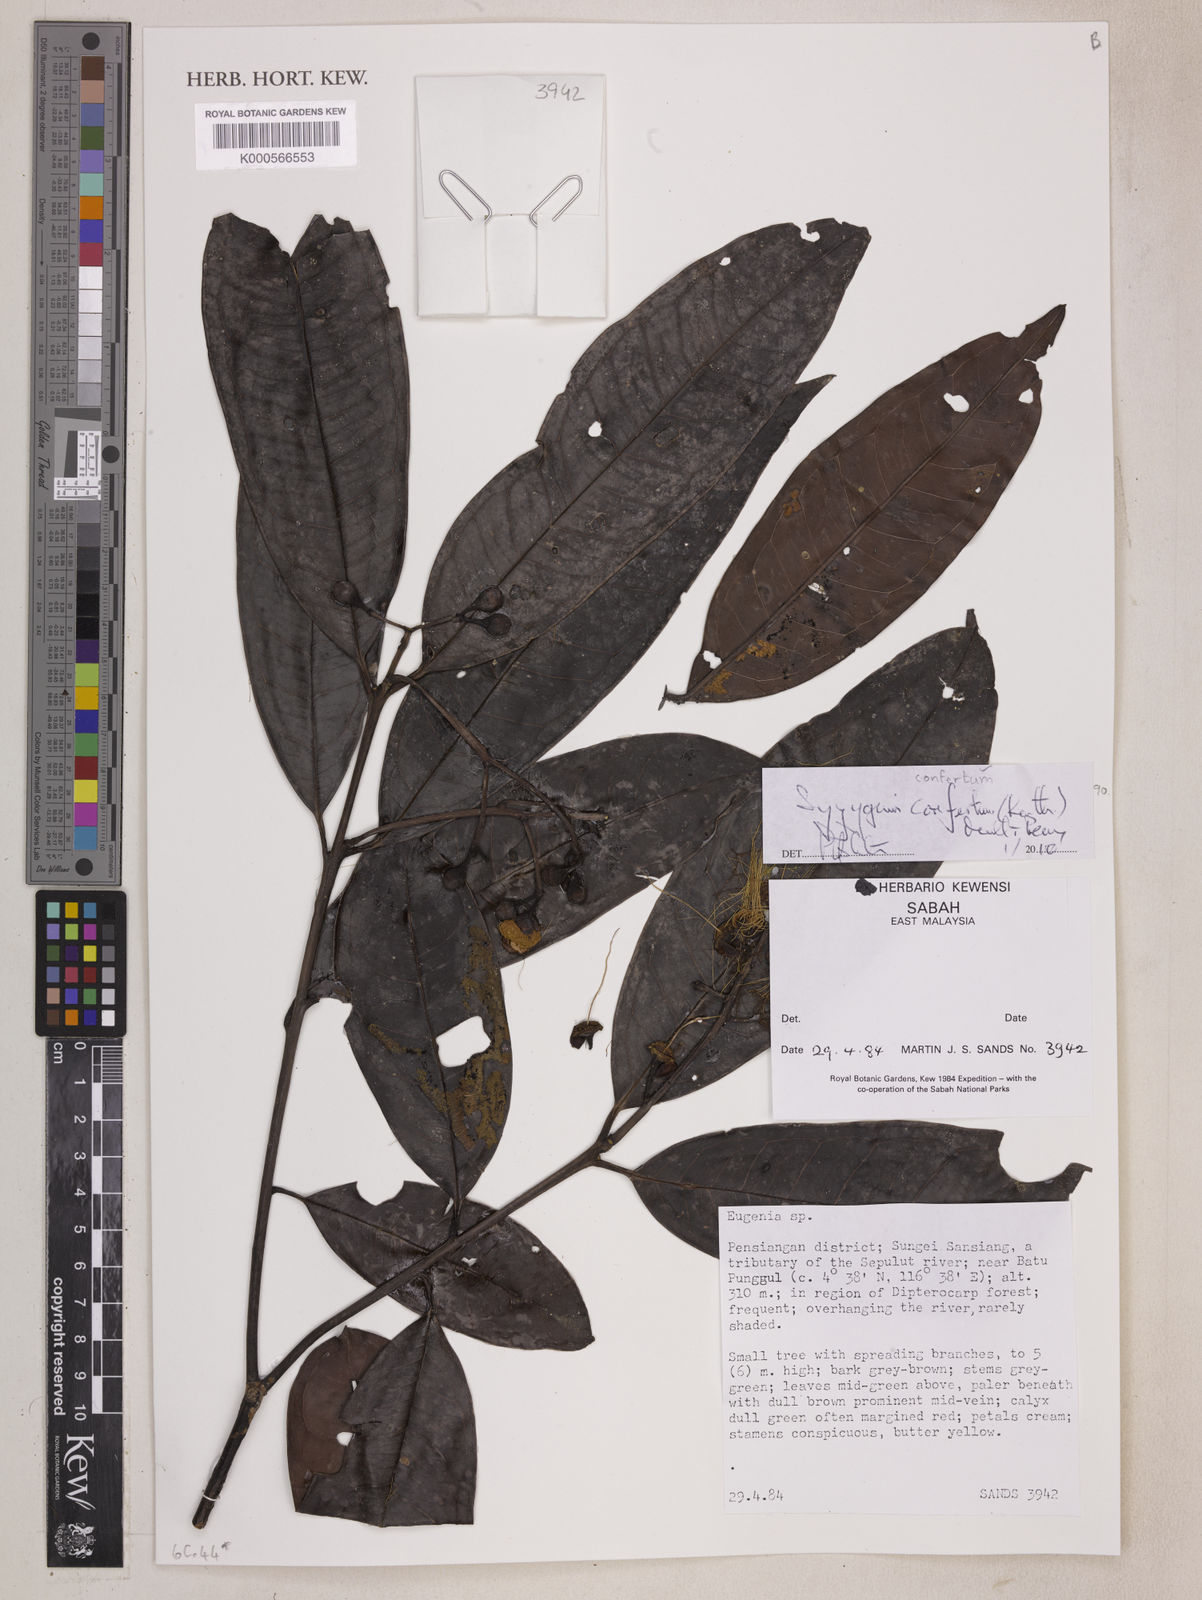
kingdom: Plantae
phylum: Tracheophyta
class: Magnoliopsida
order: Myrtales
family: Myrtaceae
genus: Syzygium
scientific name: Syzygium barringtonioides
